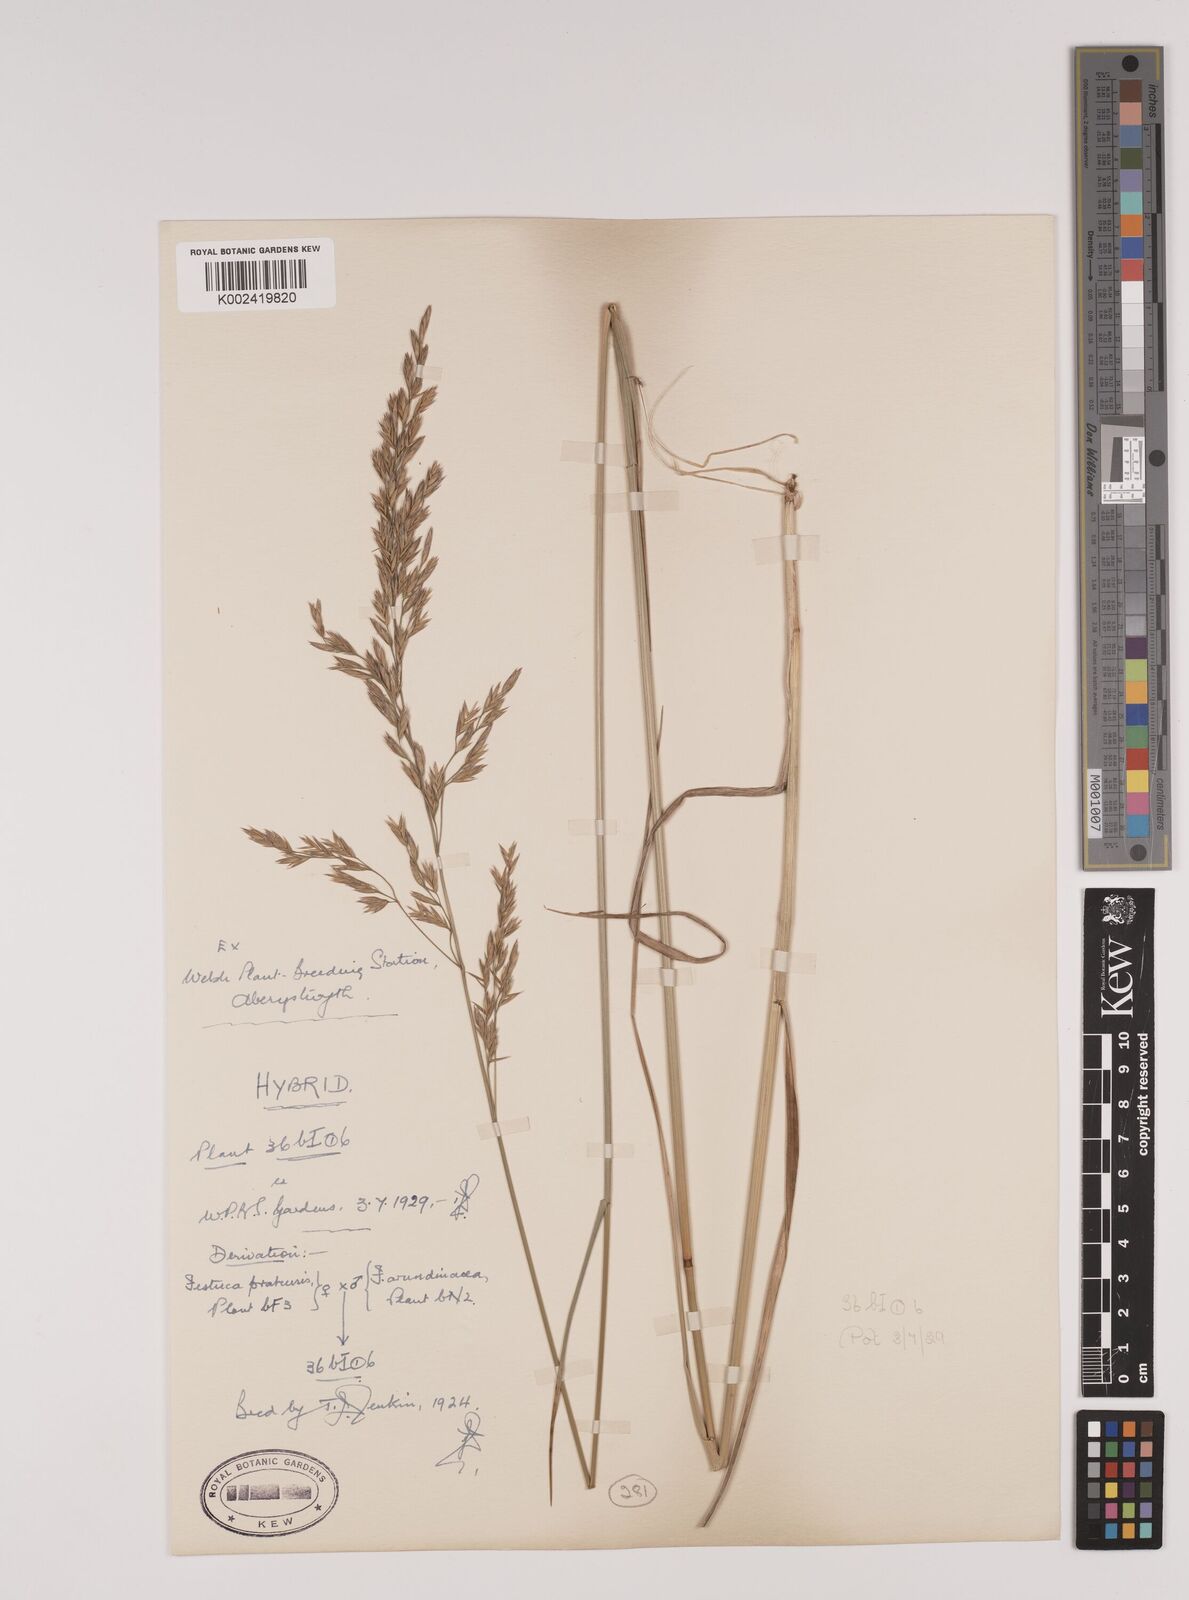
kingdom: Plantae
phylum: Tracheophyta
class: Liliopsida
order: Poales
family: Poaceae
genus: Festuca
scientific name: Festuca rubra
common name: Red fescue
